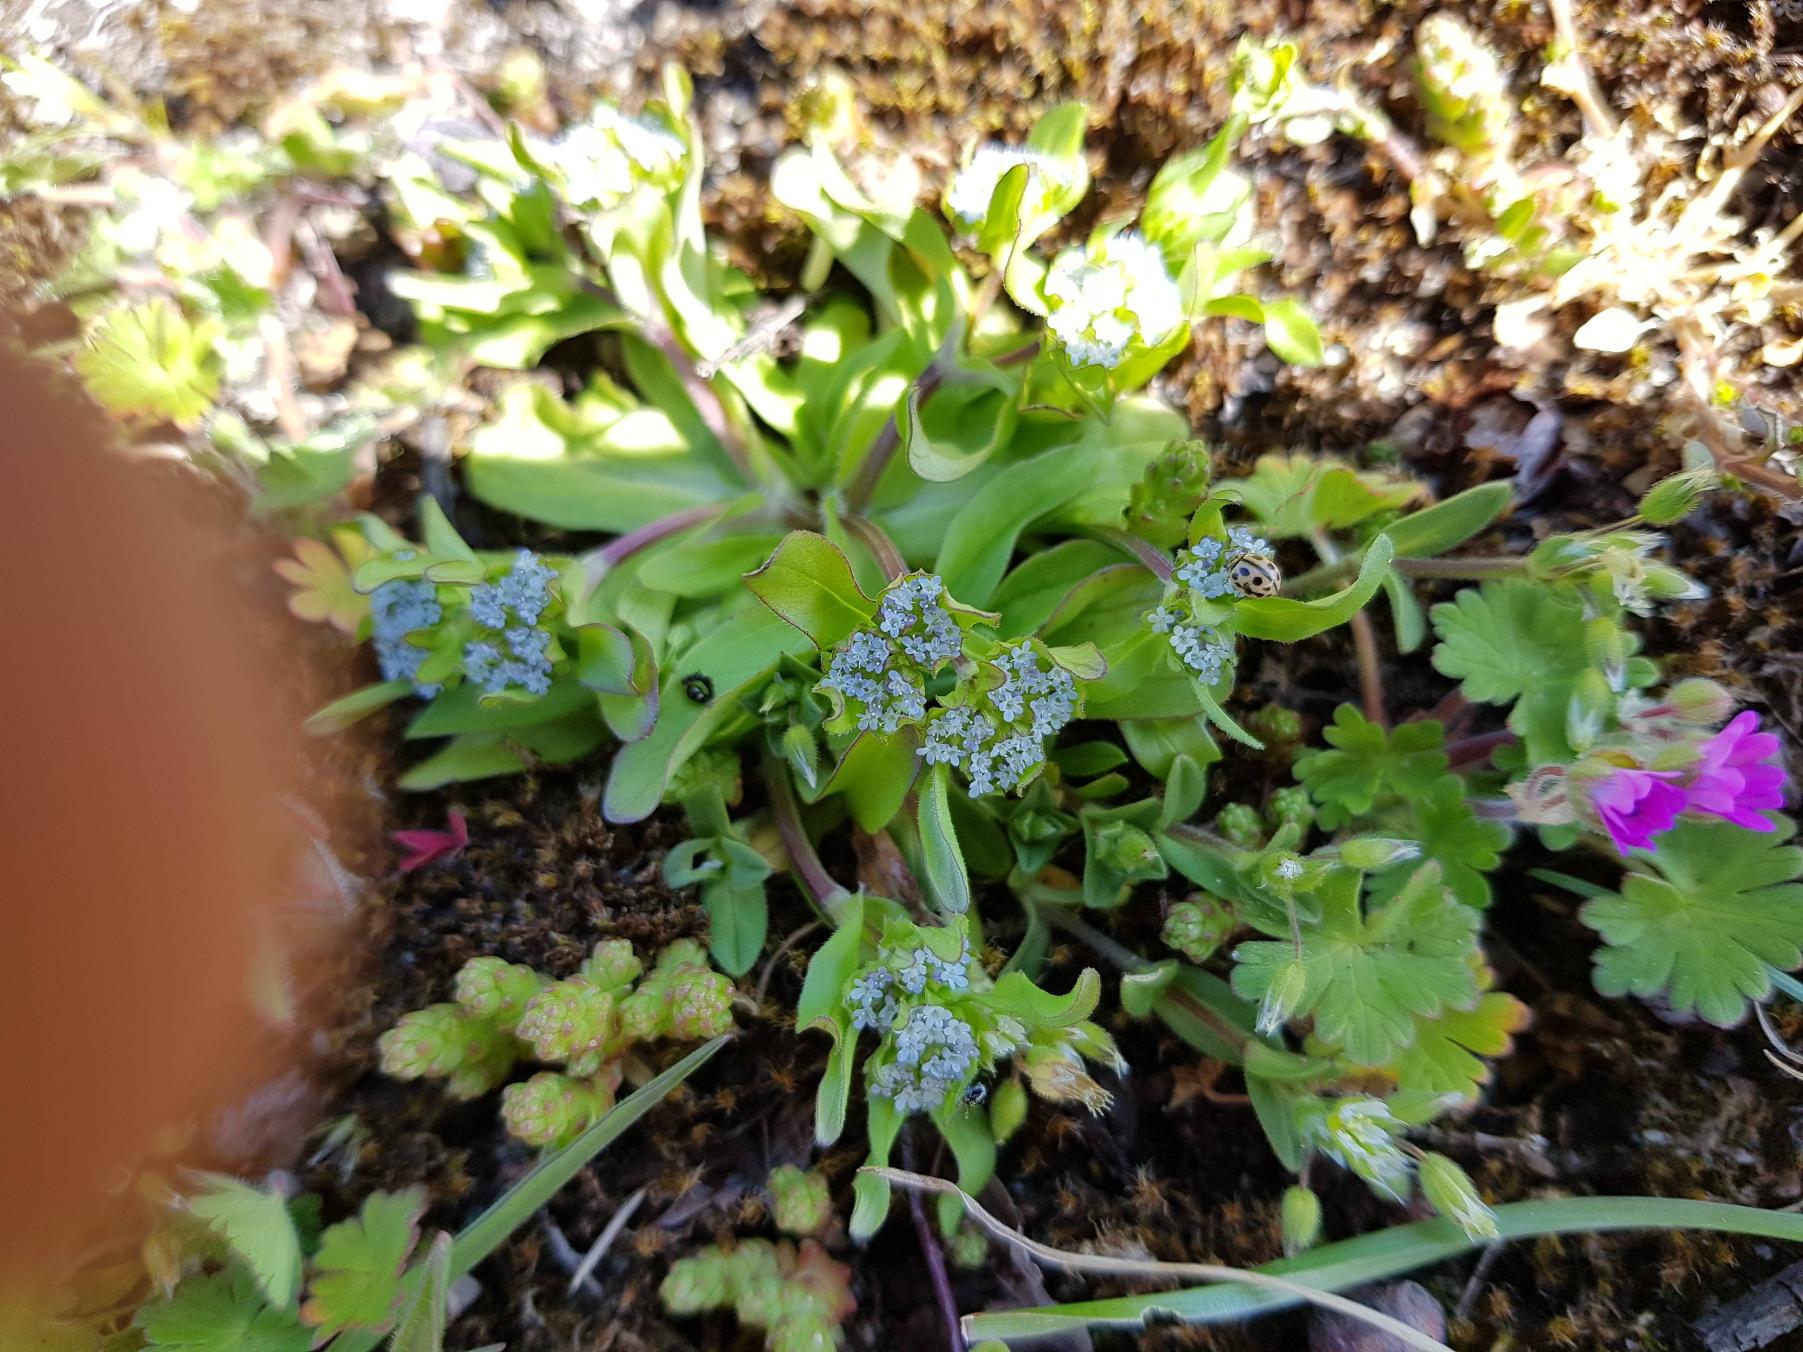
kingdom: Plantae
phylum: Tracheophyta
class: Magnoliopsida
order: Dipsacales
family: Caprifoliaceae
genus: Valerianella
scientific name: Valerianella locusta
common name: Tandfri vårsalat
